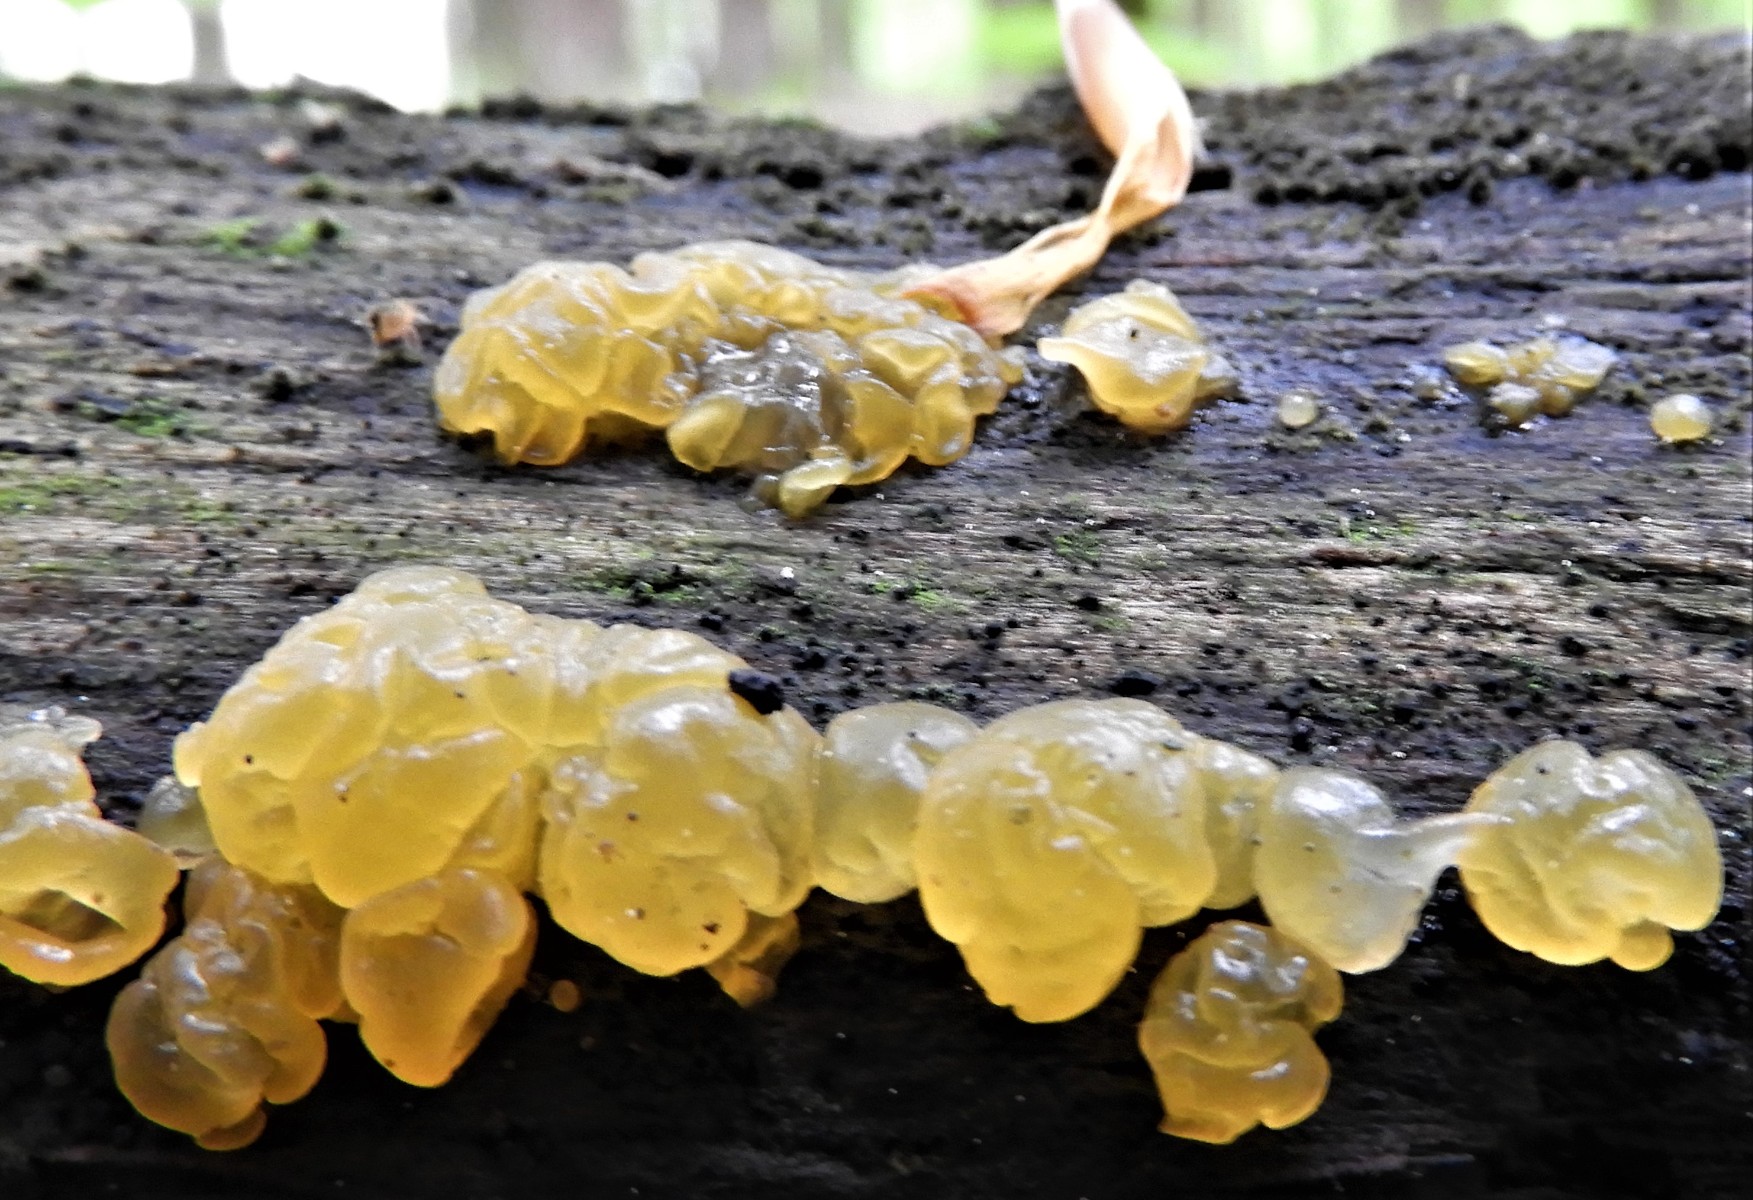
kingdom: Fungi
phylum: Basidiomycota
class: Dacrymycetes
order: Dacrymycetales
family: Dacrymycetaceae
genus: Dacrymyces
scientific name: Dacrymyces lacrymalis
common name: rynket tåresvamp
